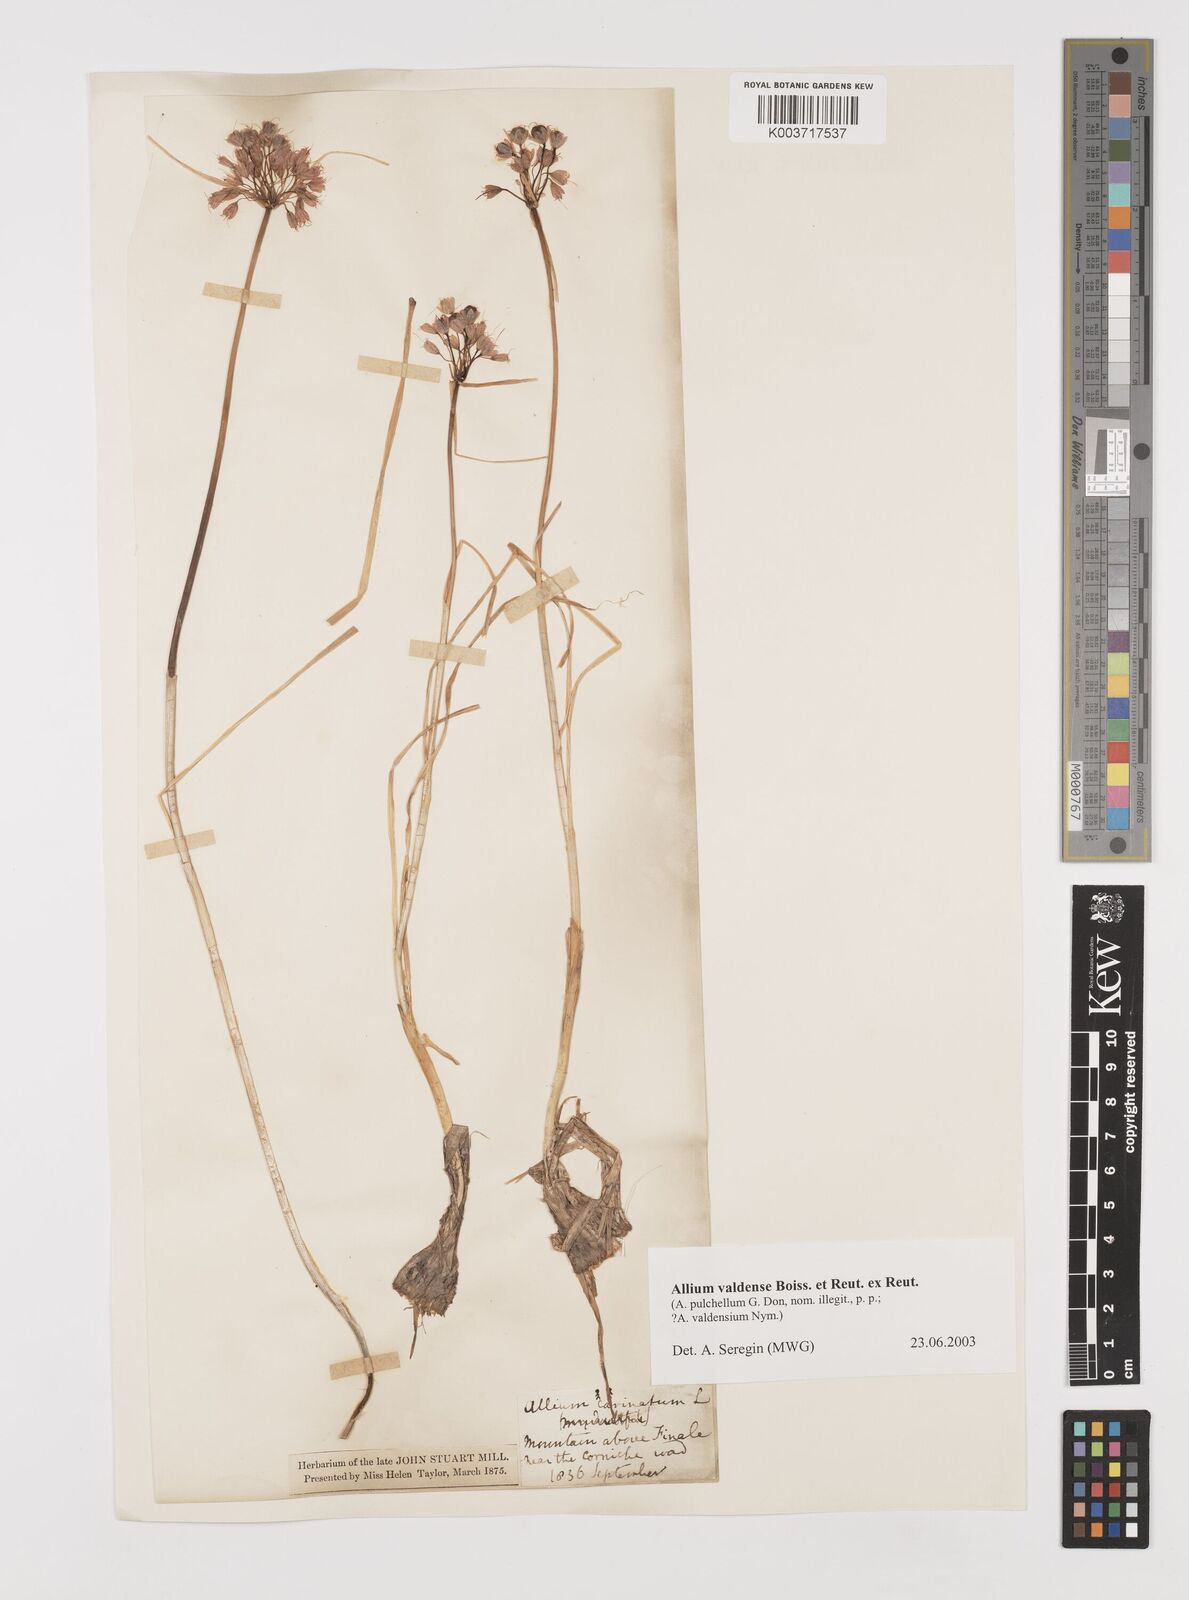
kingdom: Plantae
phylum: Tracheophyta
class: Liliopsida
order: Asparagales
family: Amaryllidaceae
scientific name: Amaryllidaceae
